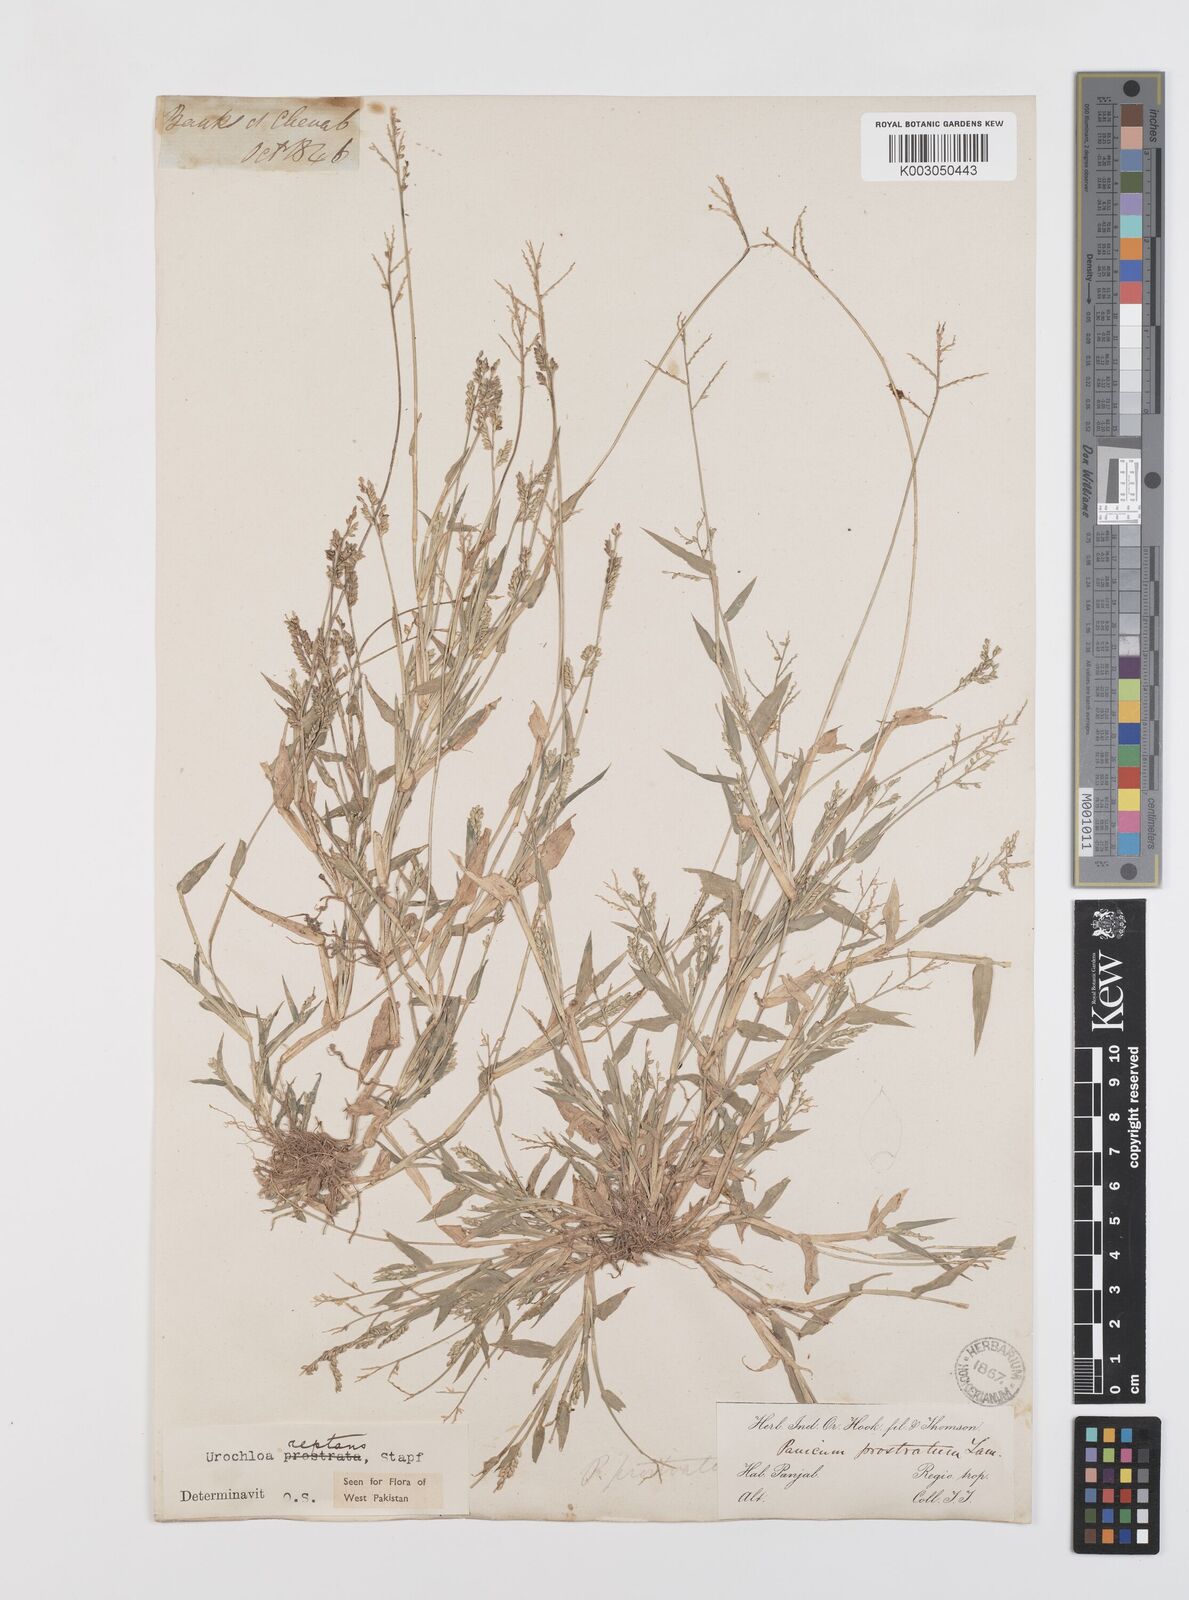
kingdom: Plantae
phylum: Tracheophyta
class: Liliopsida
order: Poales
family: Poaceae
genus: Urochloa
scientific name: Urochloa reptans
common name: Sprawling signalgrass
